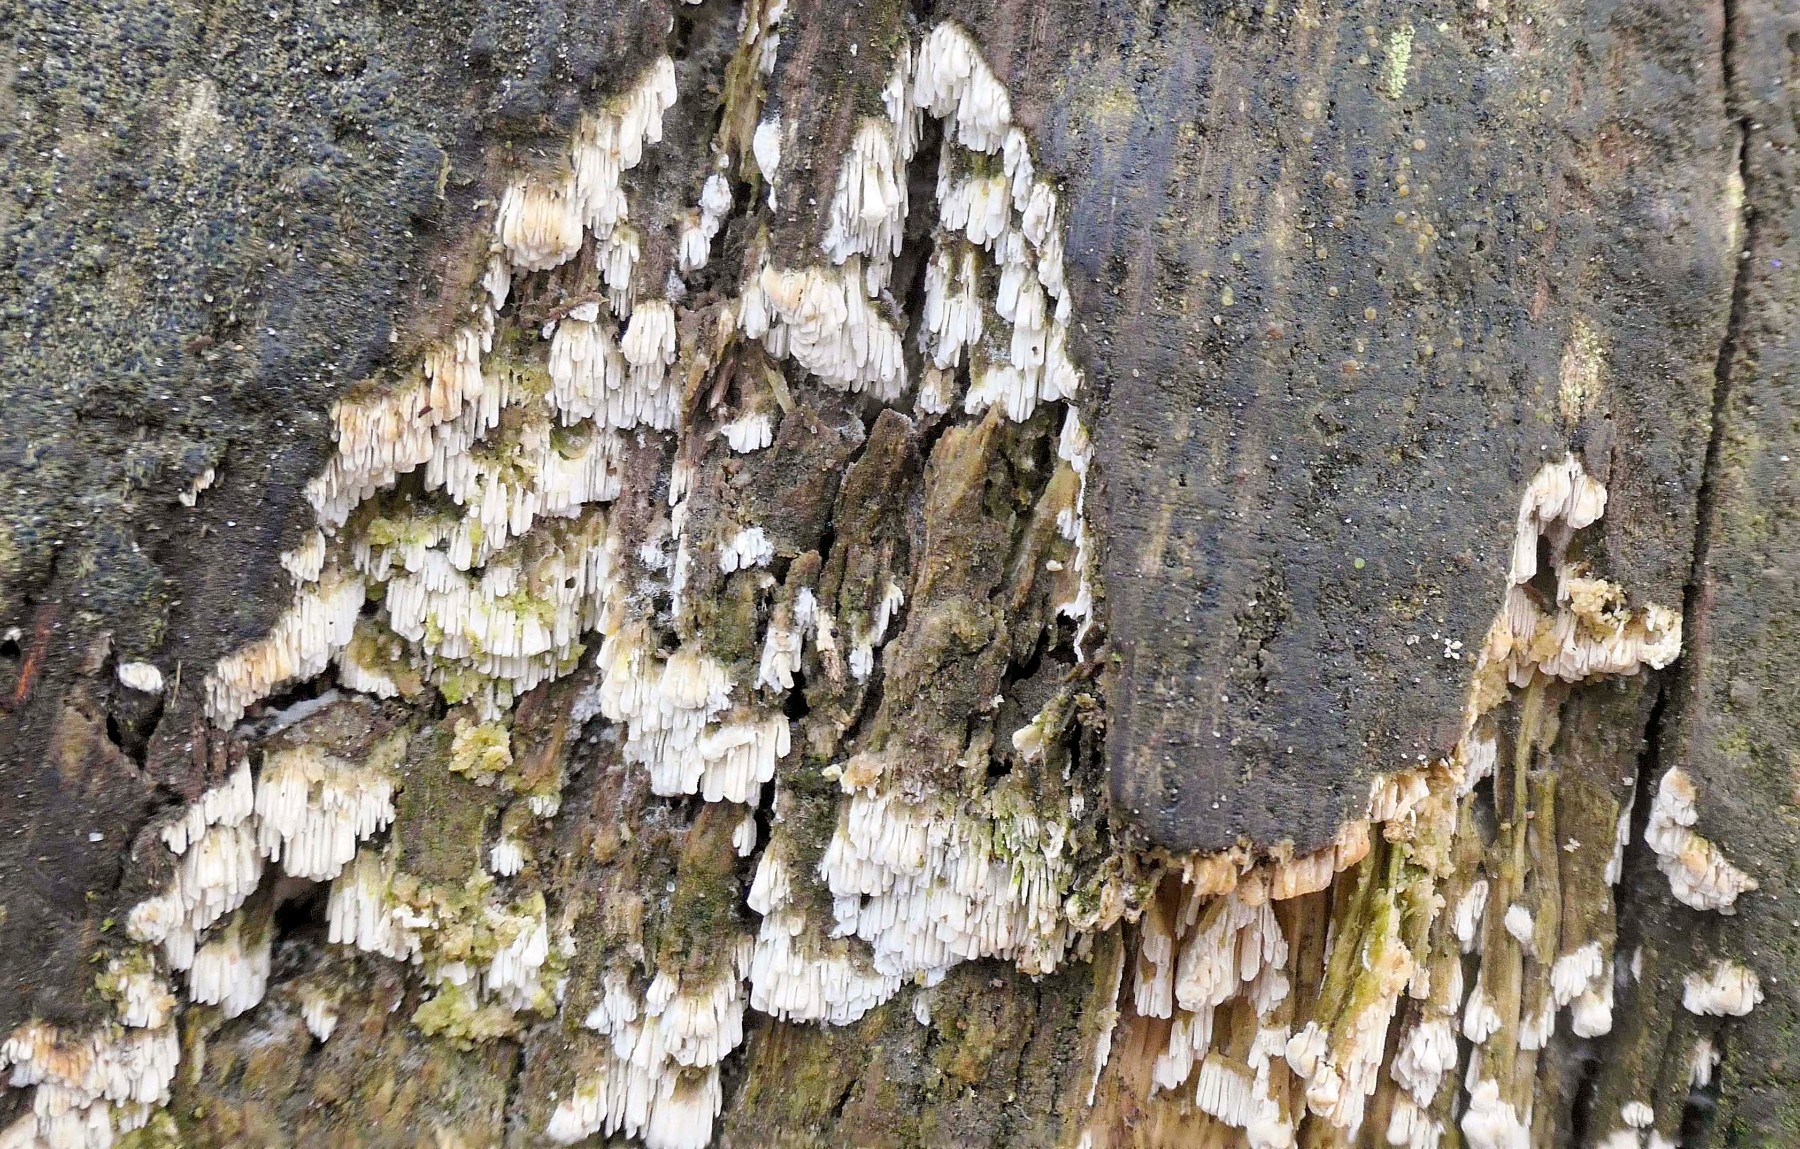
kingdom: Fungi
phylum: Basidiomycota
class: Agaricomycetes
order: Hymenochaetales
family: Schizoporaceae
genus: Schizopora
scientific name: Schizopora paradoxa
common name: hvid tandsvamp
